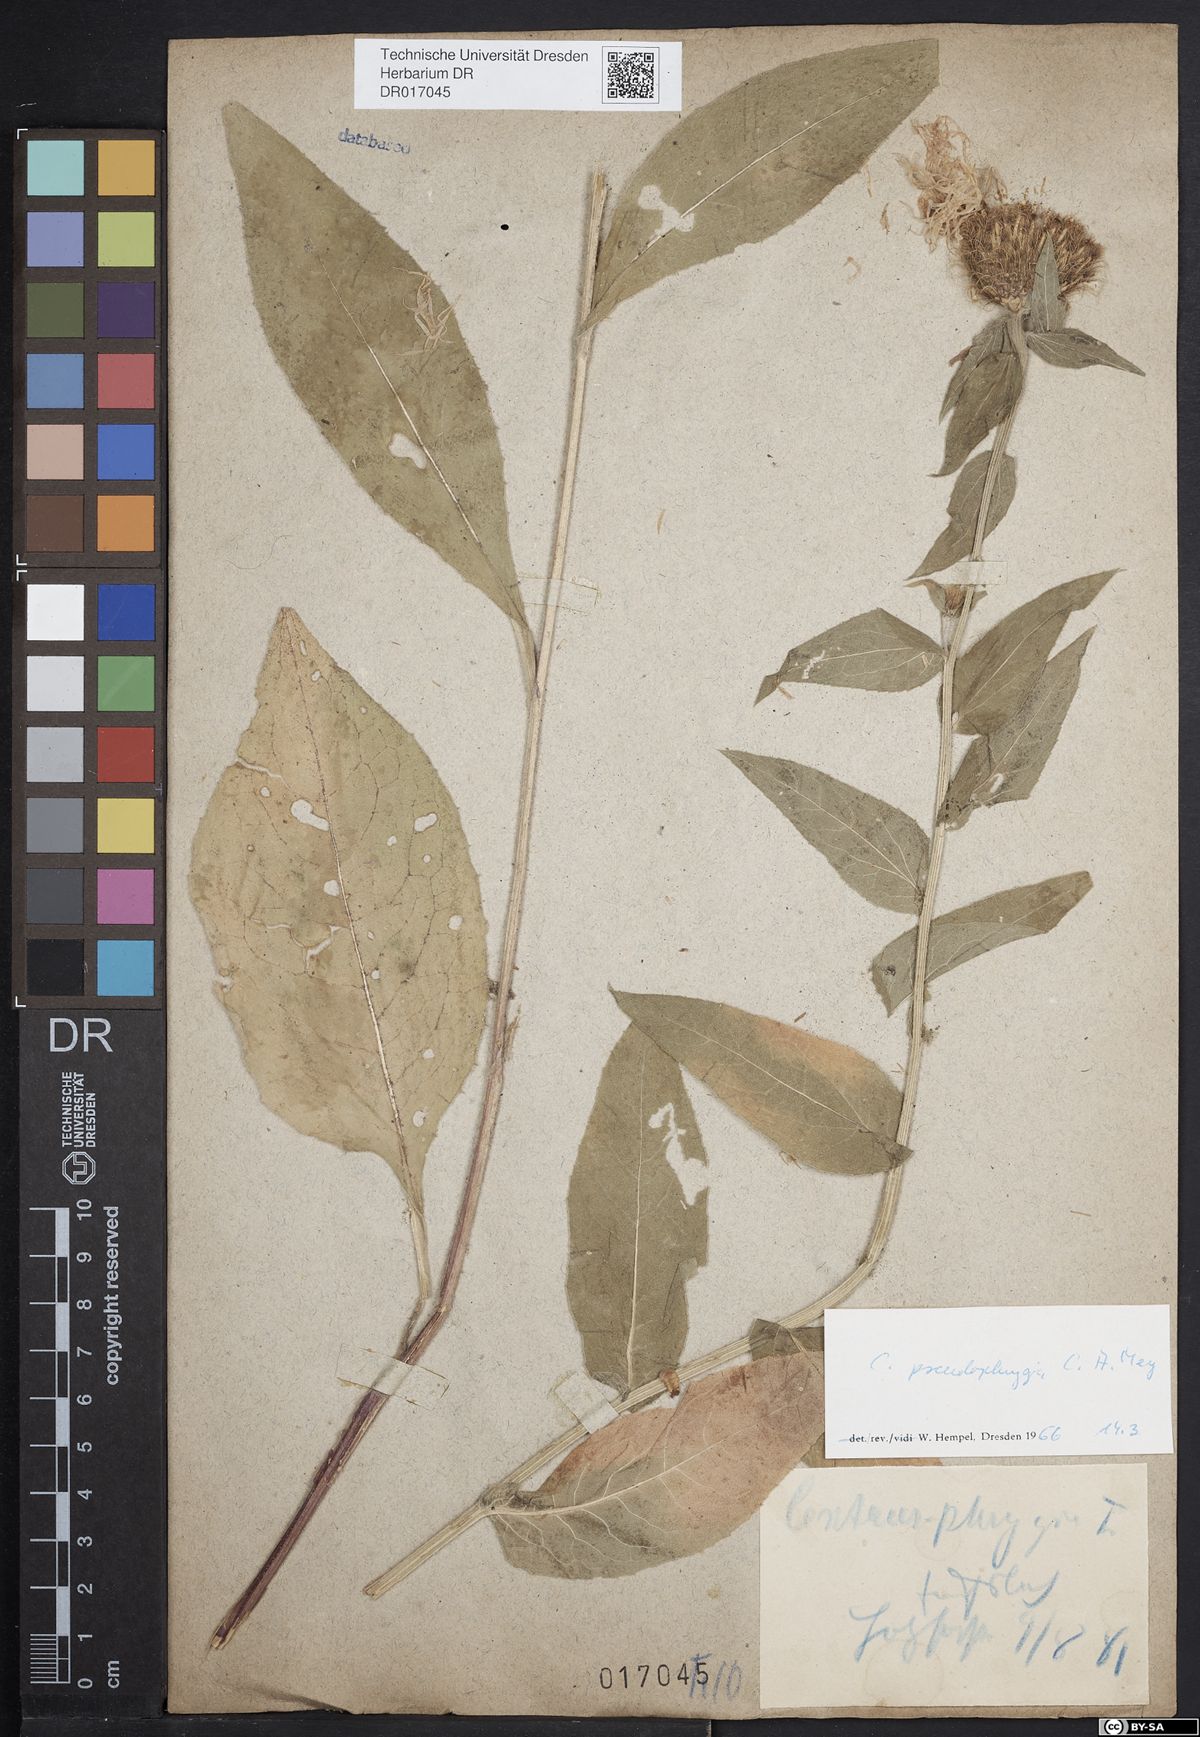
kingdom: Plantae
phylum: Tracheophyta
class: Magnoliopsida
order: Asterales
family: Asteraceae
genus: Centaurea
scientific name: Centaurea pseudophrygia
